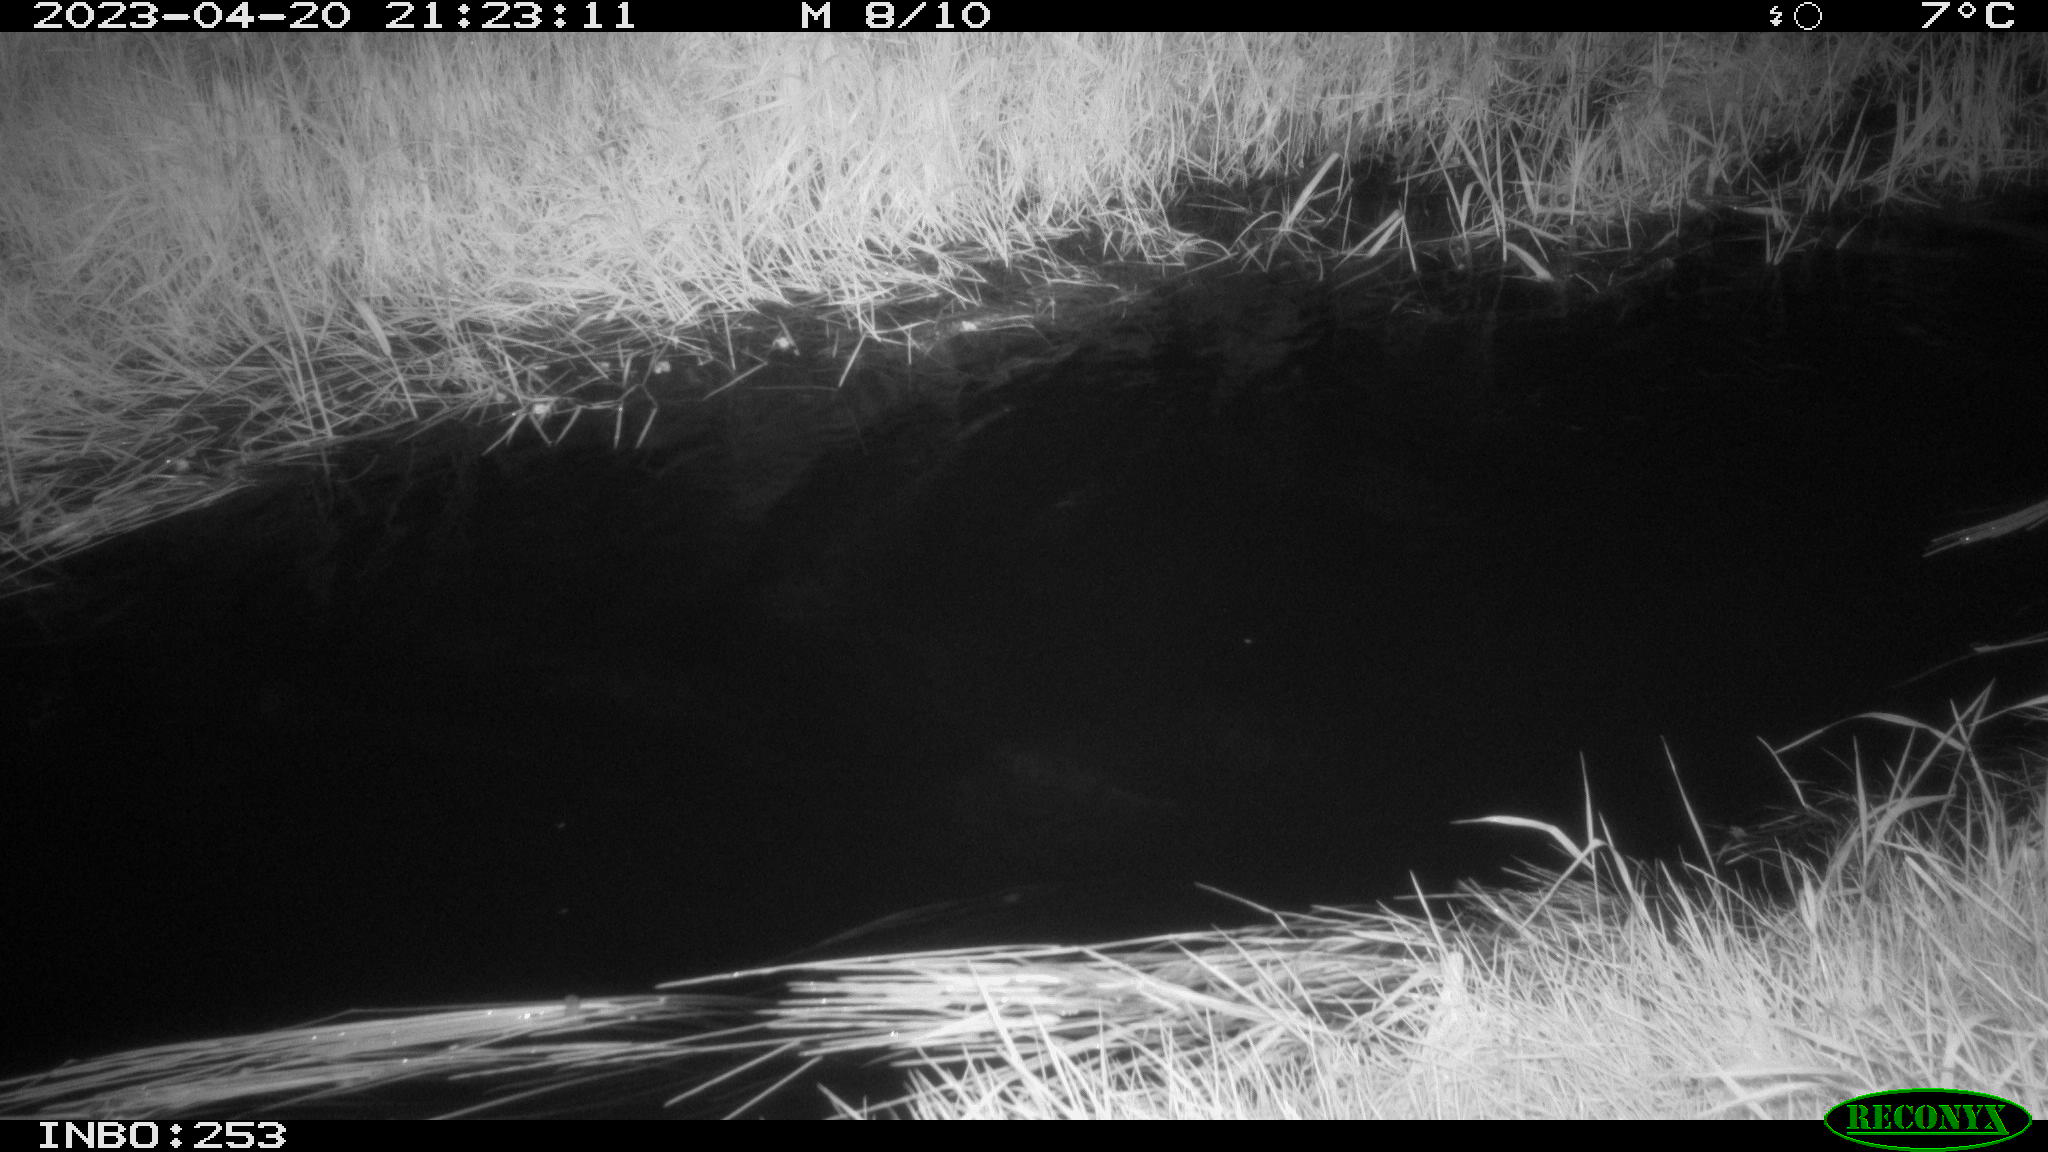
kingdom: Animalia
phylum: Chordata
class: Aves
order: Anseriformes
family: Anatidae
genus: Anas
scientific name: Anas
